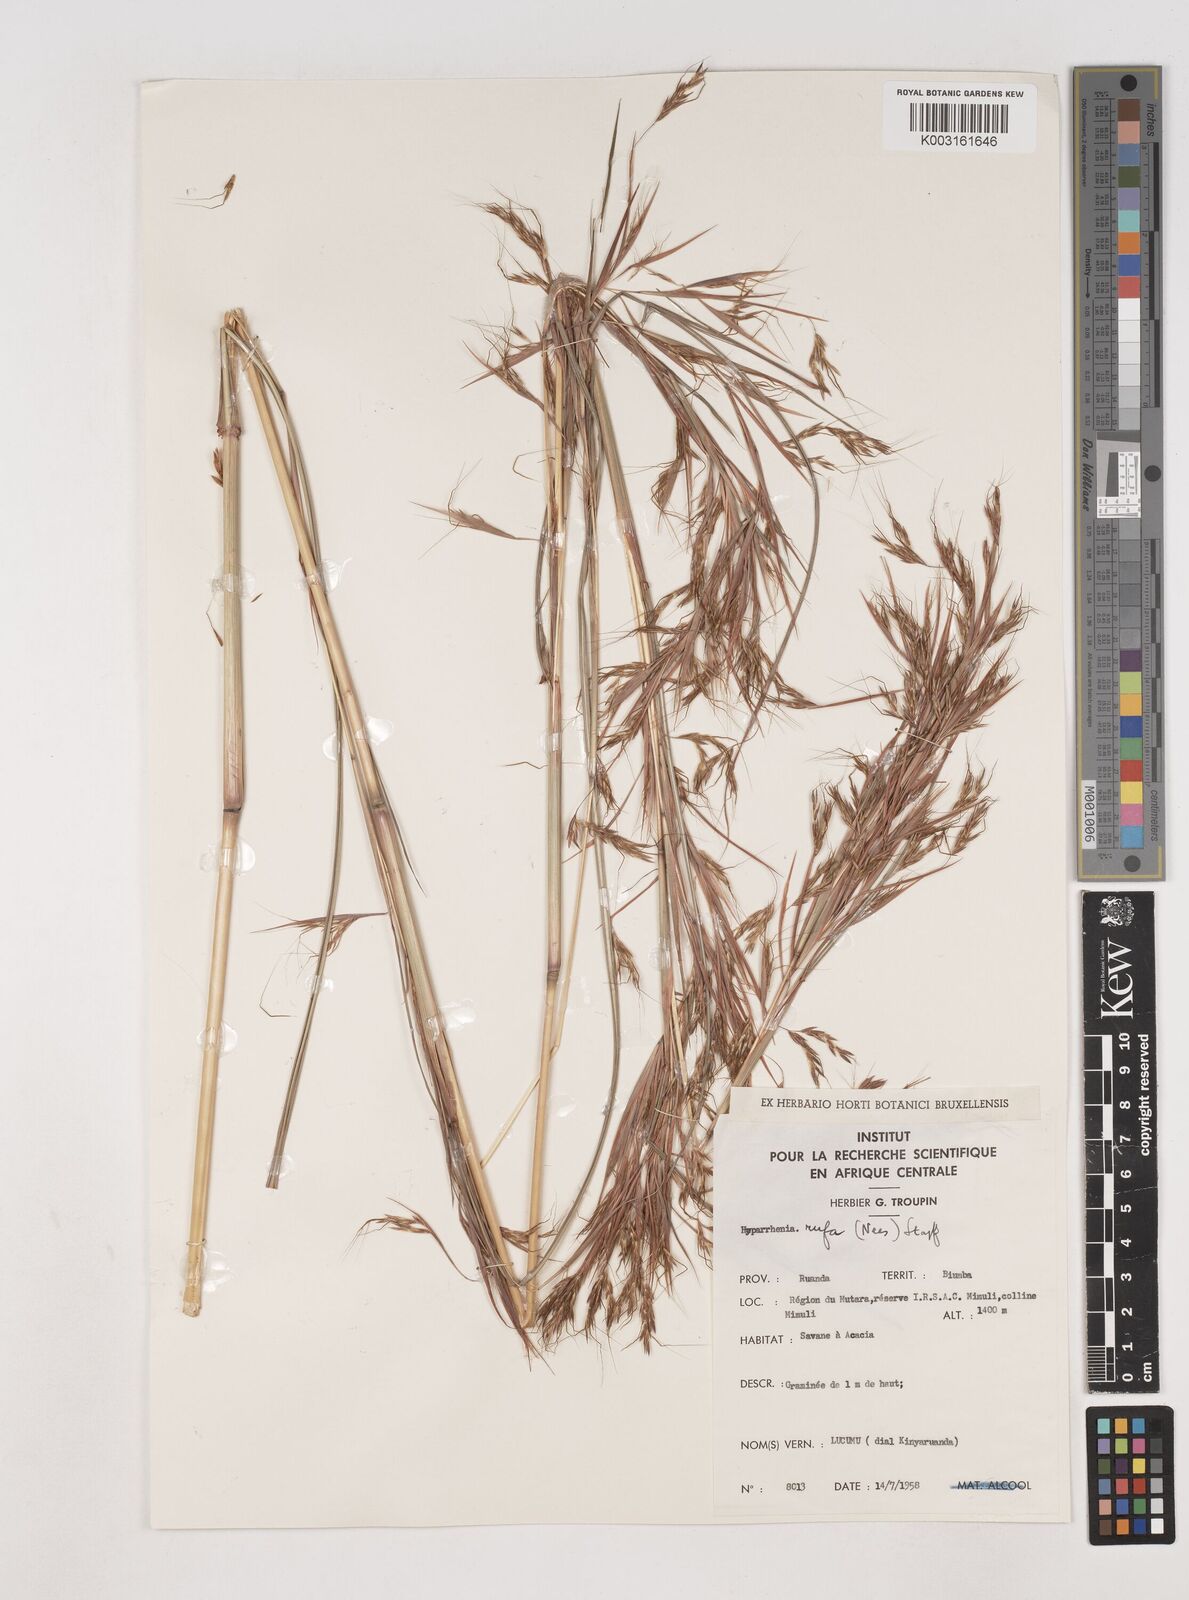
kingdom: Plantae
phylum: Tracheophyta
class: Liliopsida
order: Poales
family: Poaceae
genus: Hyparrhenia
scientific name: Hyparrhenia rufa
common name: Jaraguagrass
